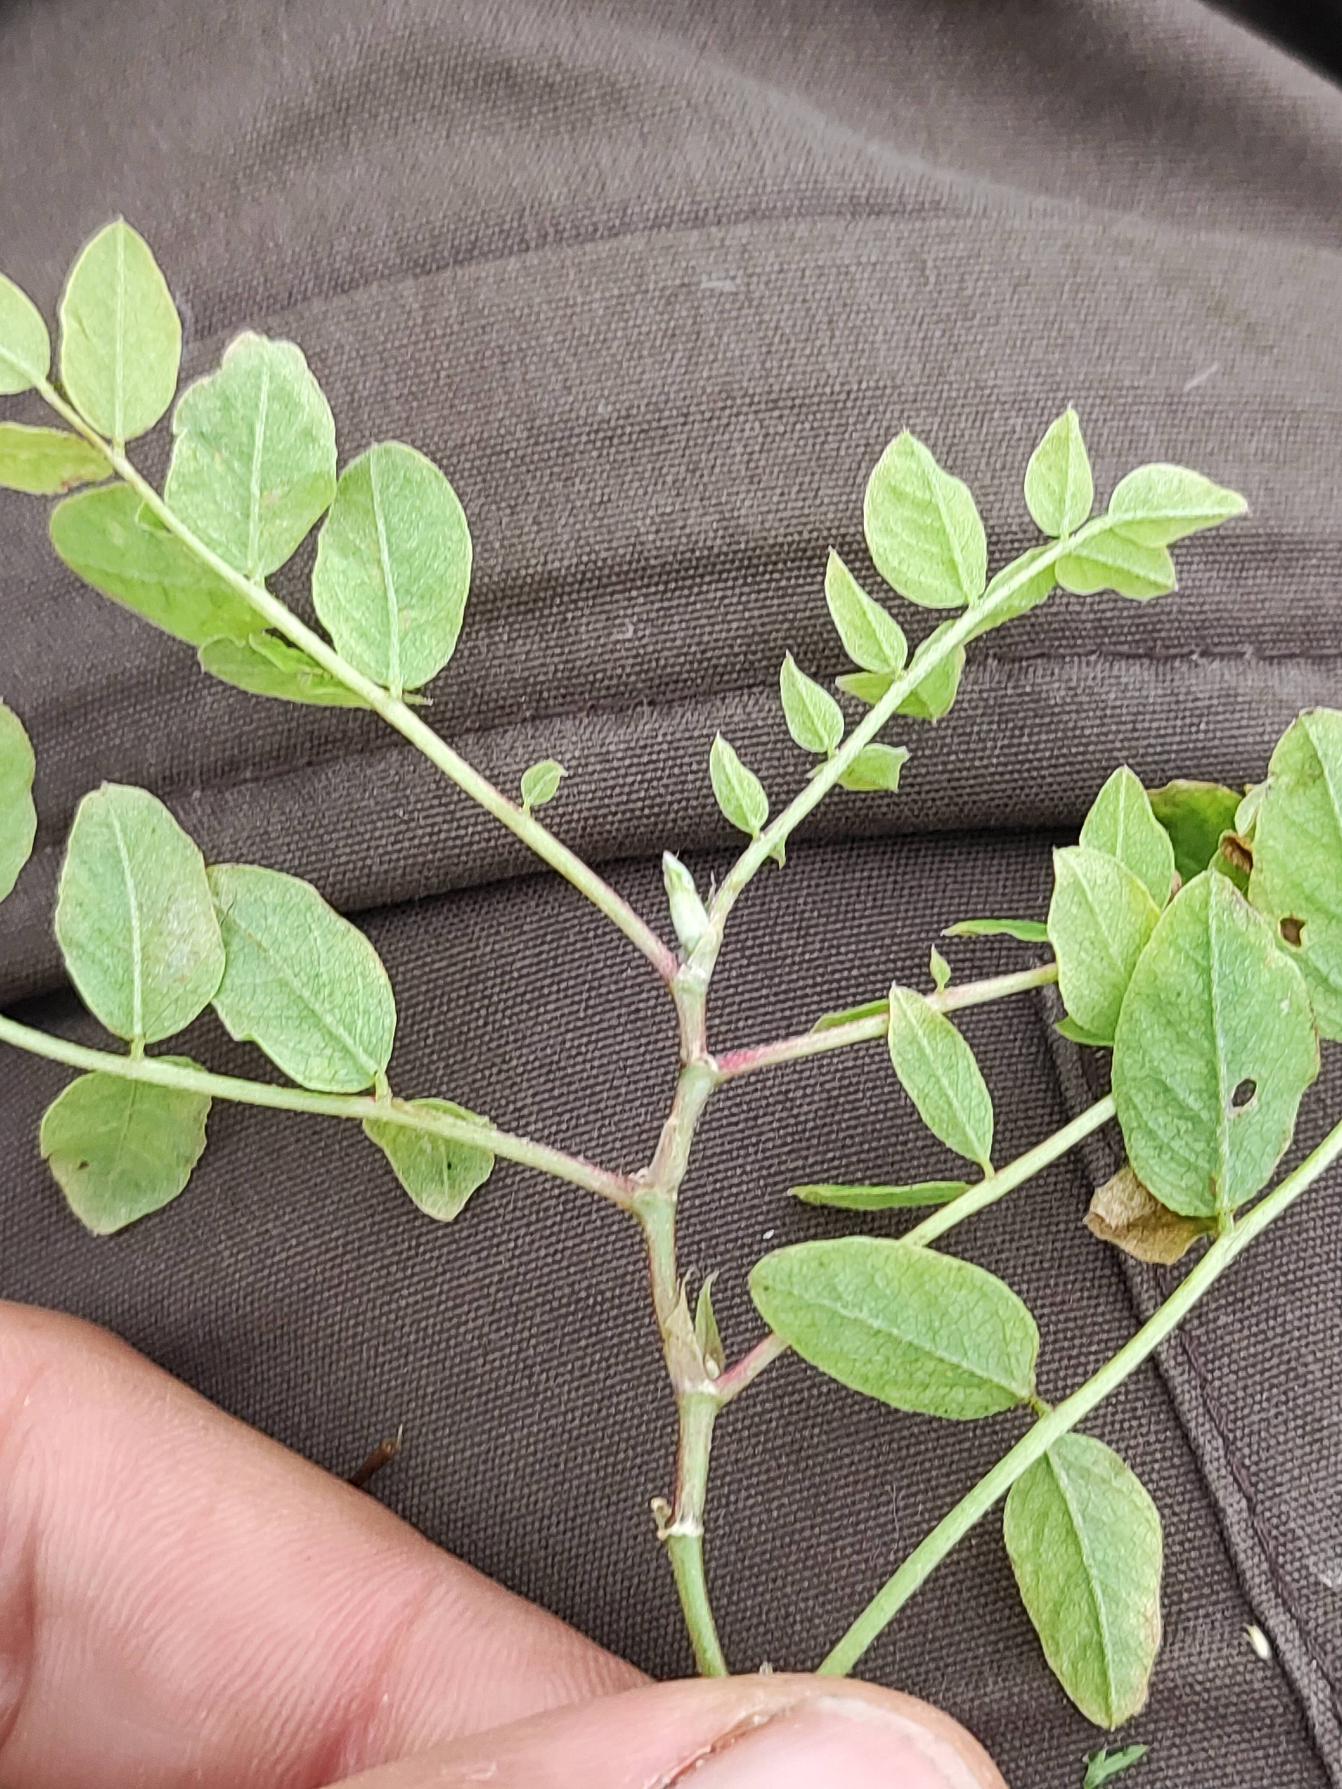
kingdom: Plantae
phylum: Tracheophyta
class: Magnoliopsida
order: Fabales
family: Fabaceae
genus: Astragalus
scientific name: Astragalus glycyphyllos
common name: Sød astragel
